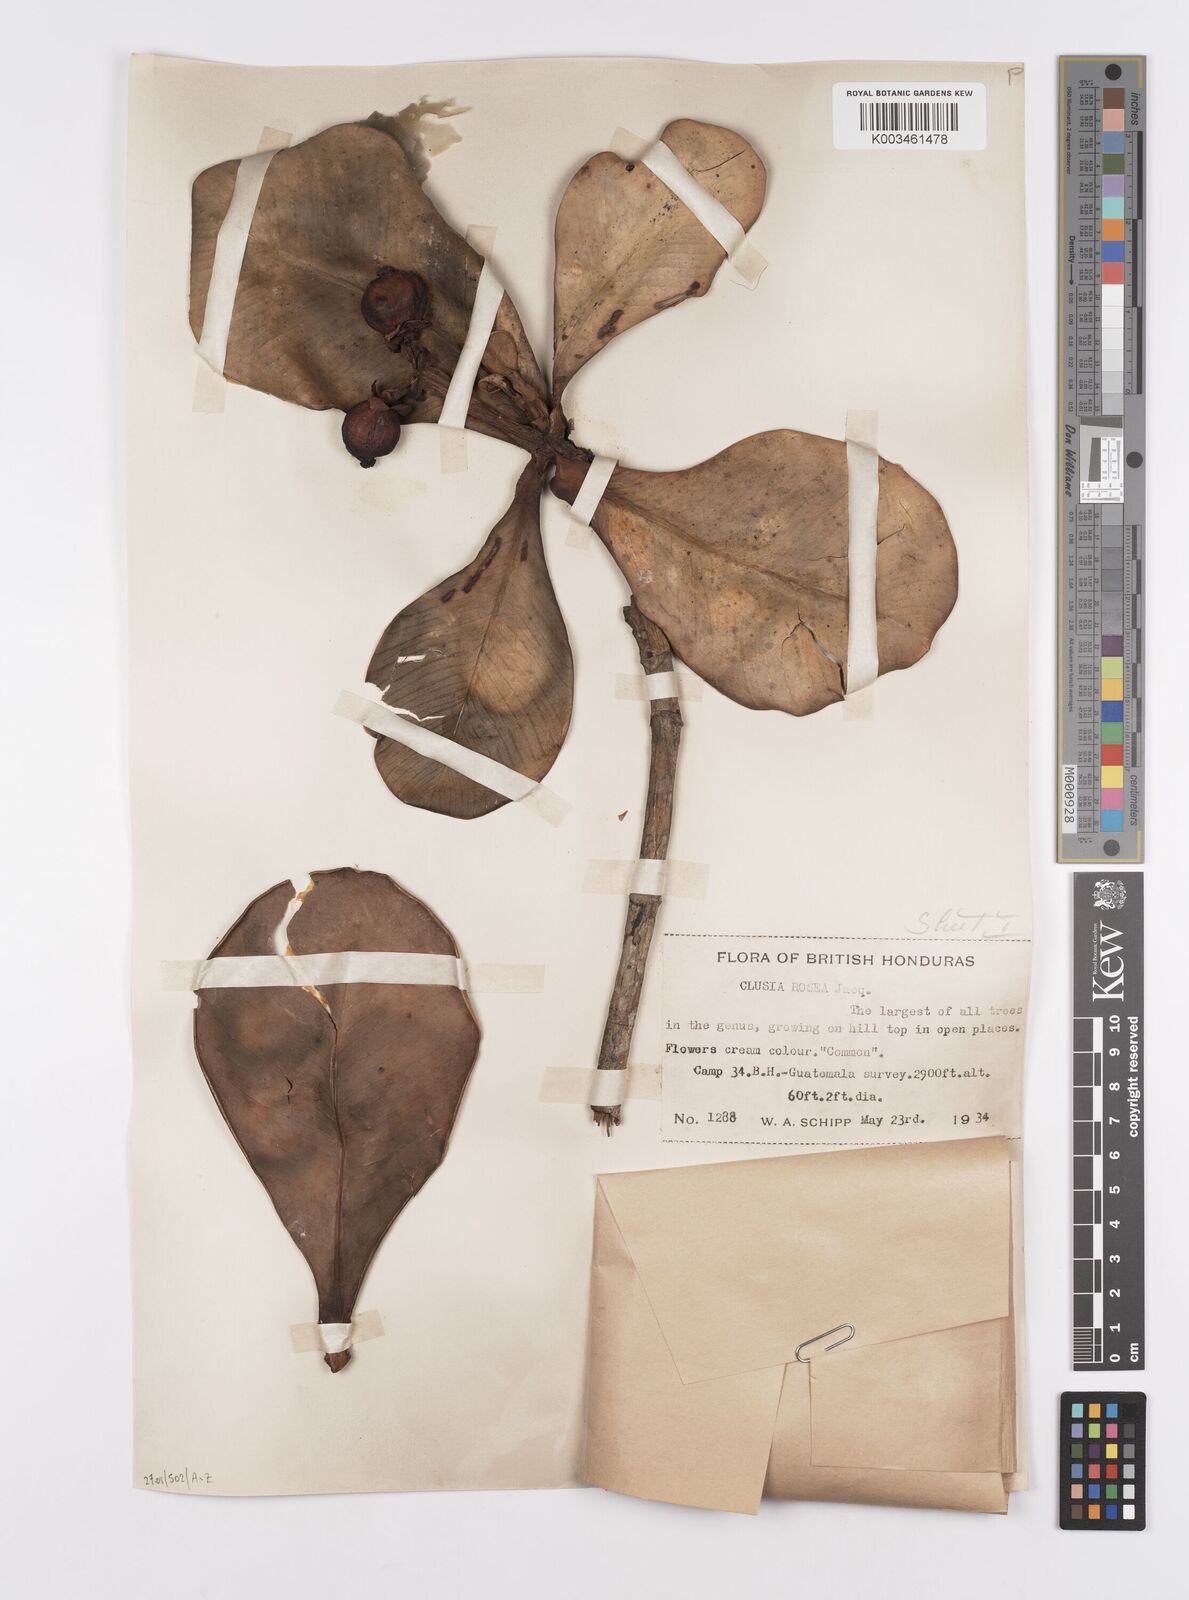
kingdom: Plantae
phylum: Tracheophyta
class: Magnoliopsida
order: Malpighiales
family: Clusiaceae
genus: Clusia
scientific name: Clusia rosea
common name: Scotch attorney
